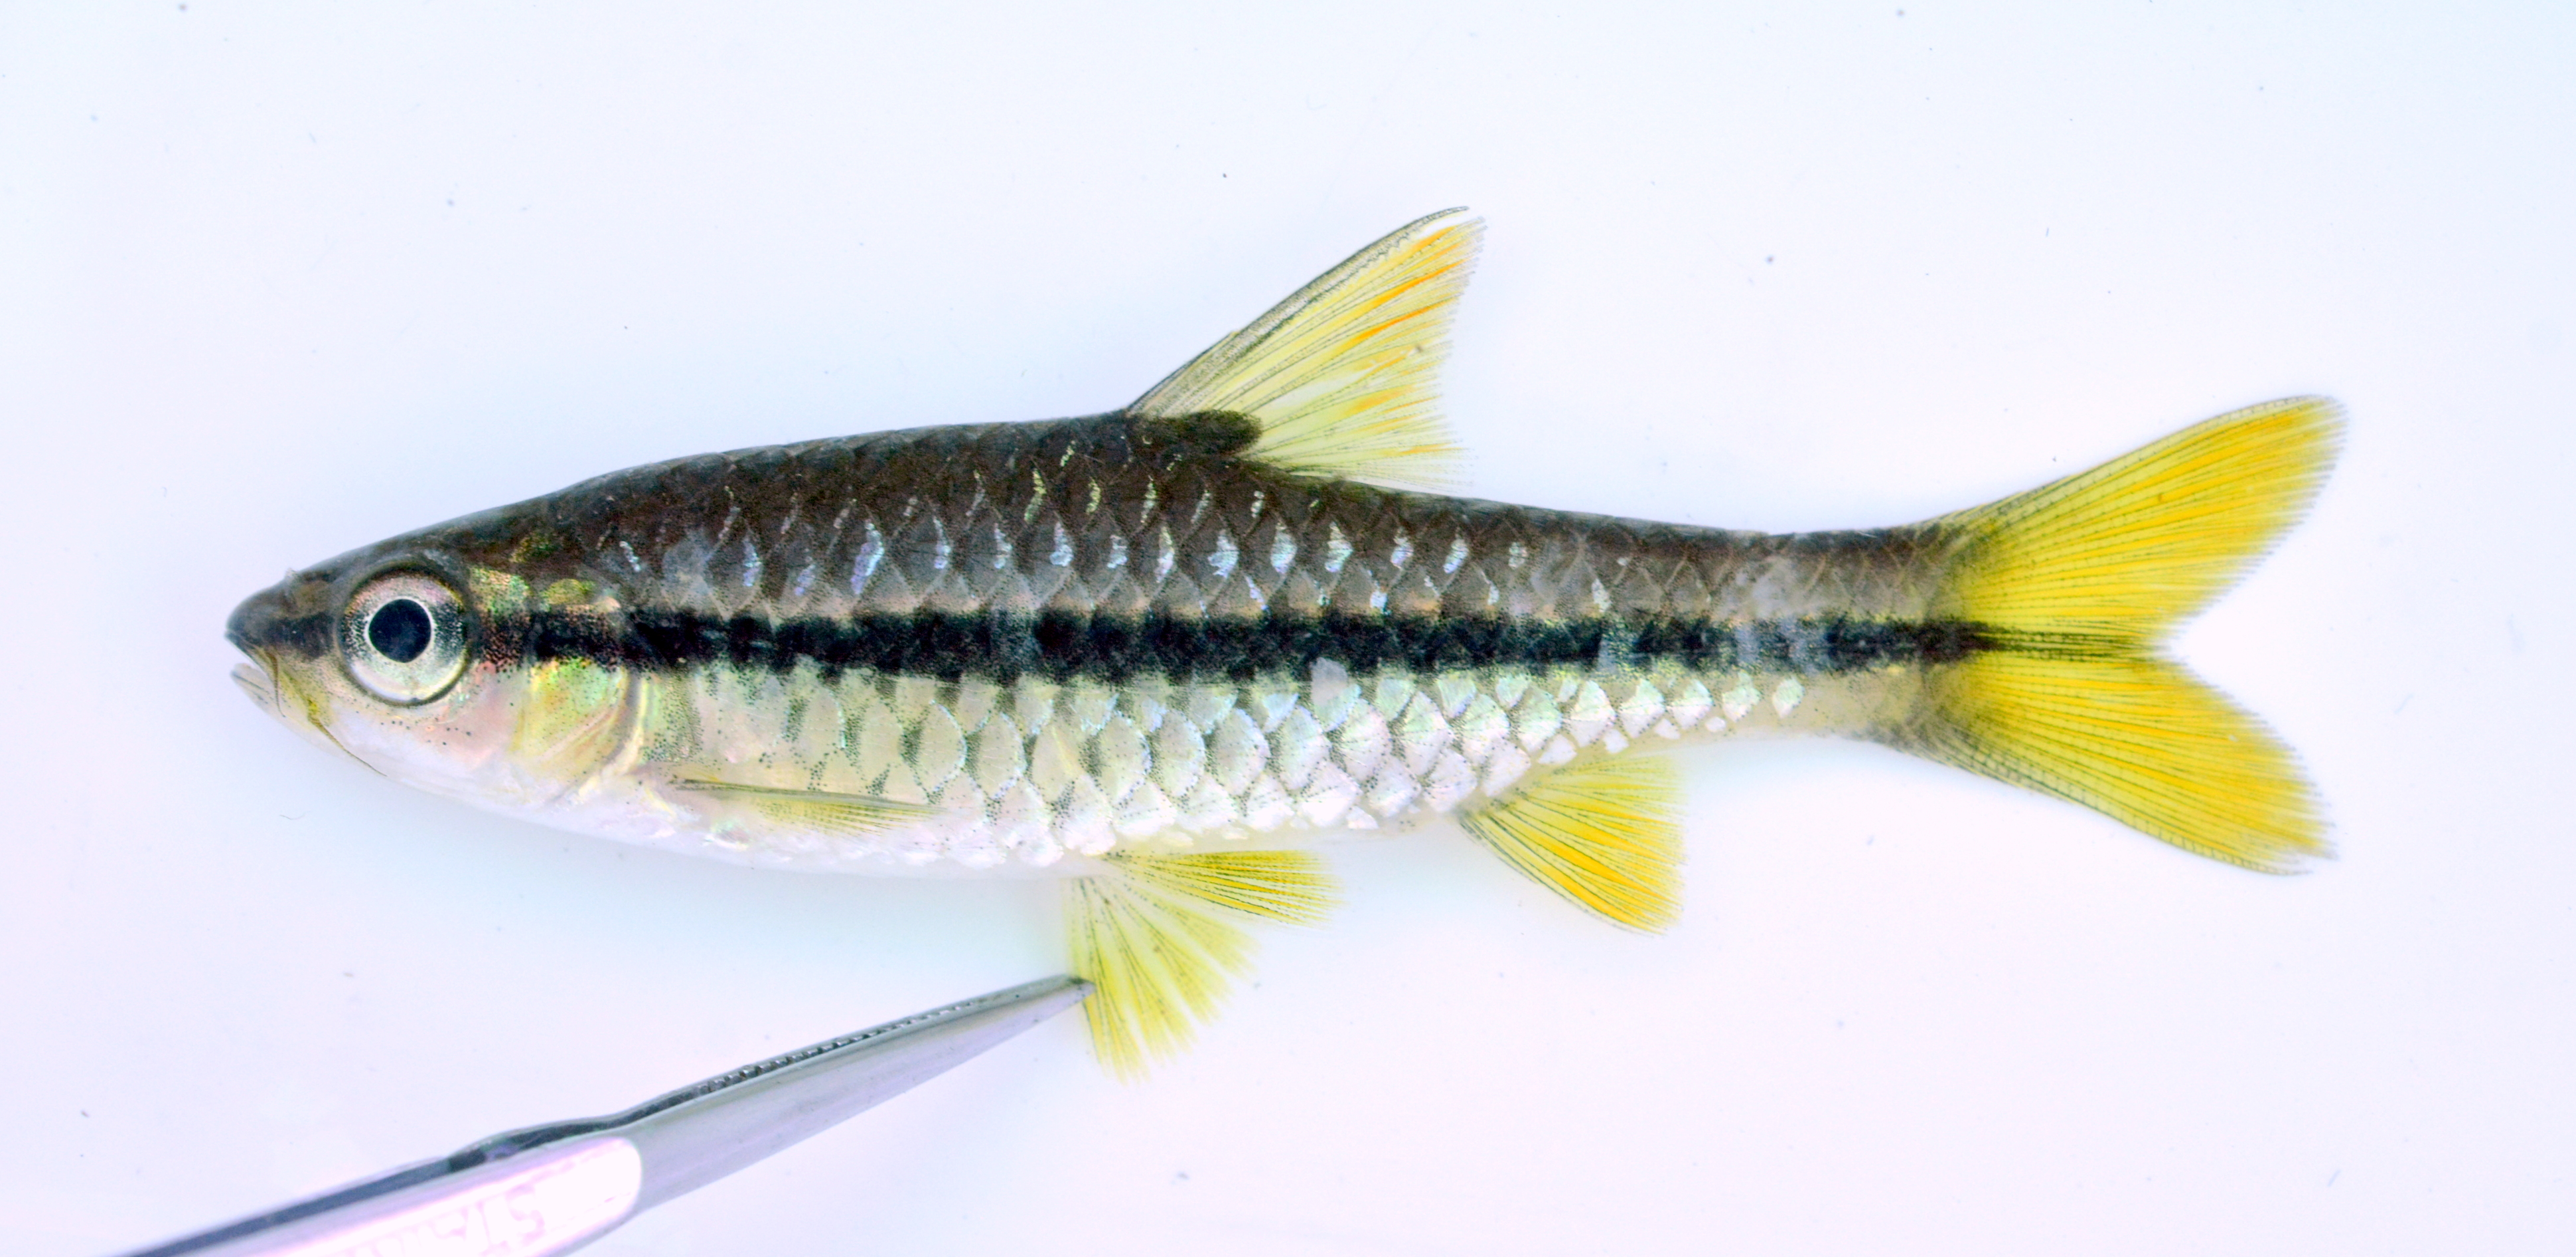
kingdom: Animalia
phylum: Chordata
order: Cypriniformes
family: Cyprinidae
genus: Enteromius
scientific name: Enteromius eutaenia
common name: Orangefin barb
